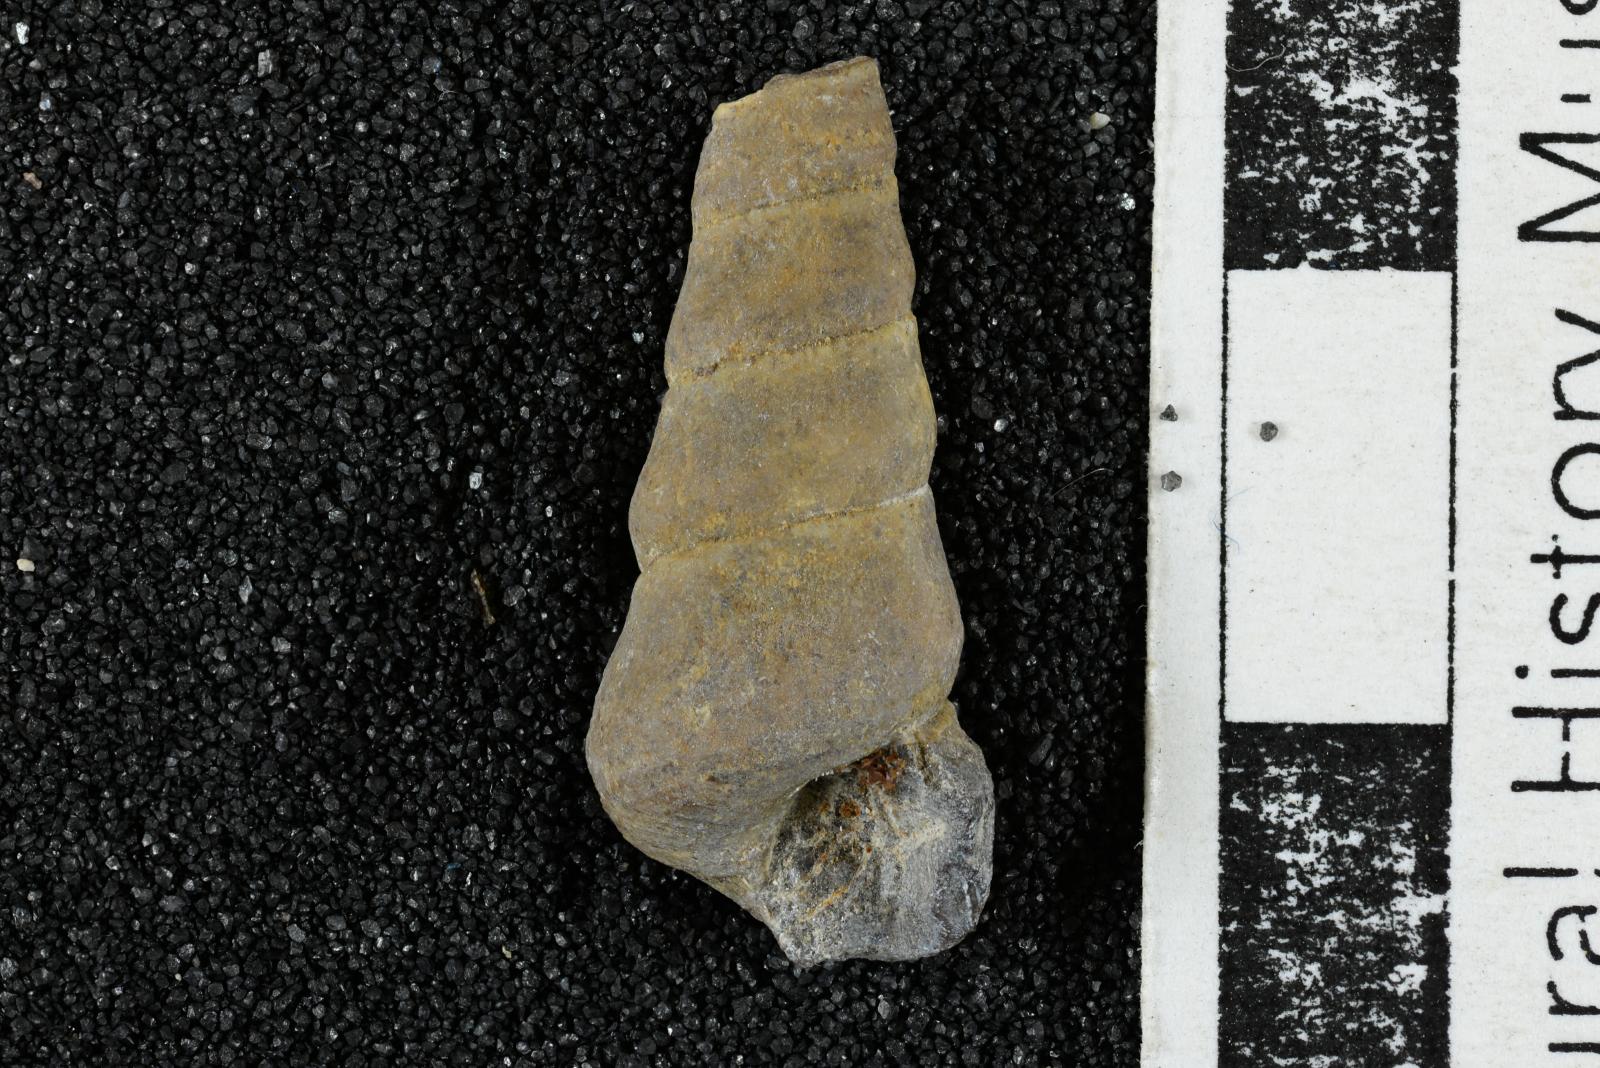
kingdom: Animalia
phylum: Mollusca
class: Gastropoda
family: Turritellidae
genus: Turritella
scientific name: Turritella ossa
